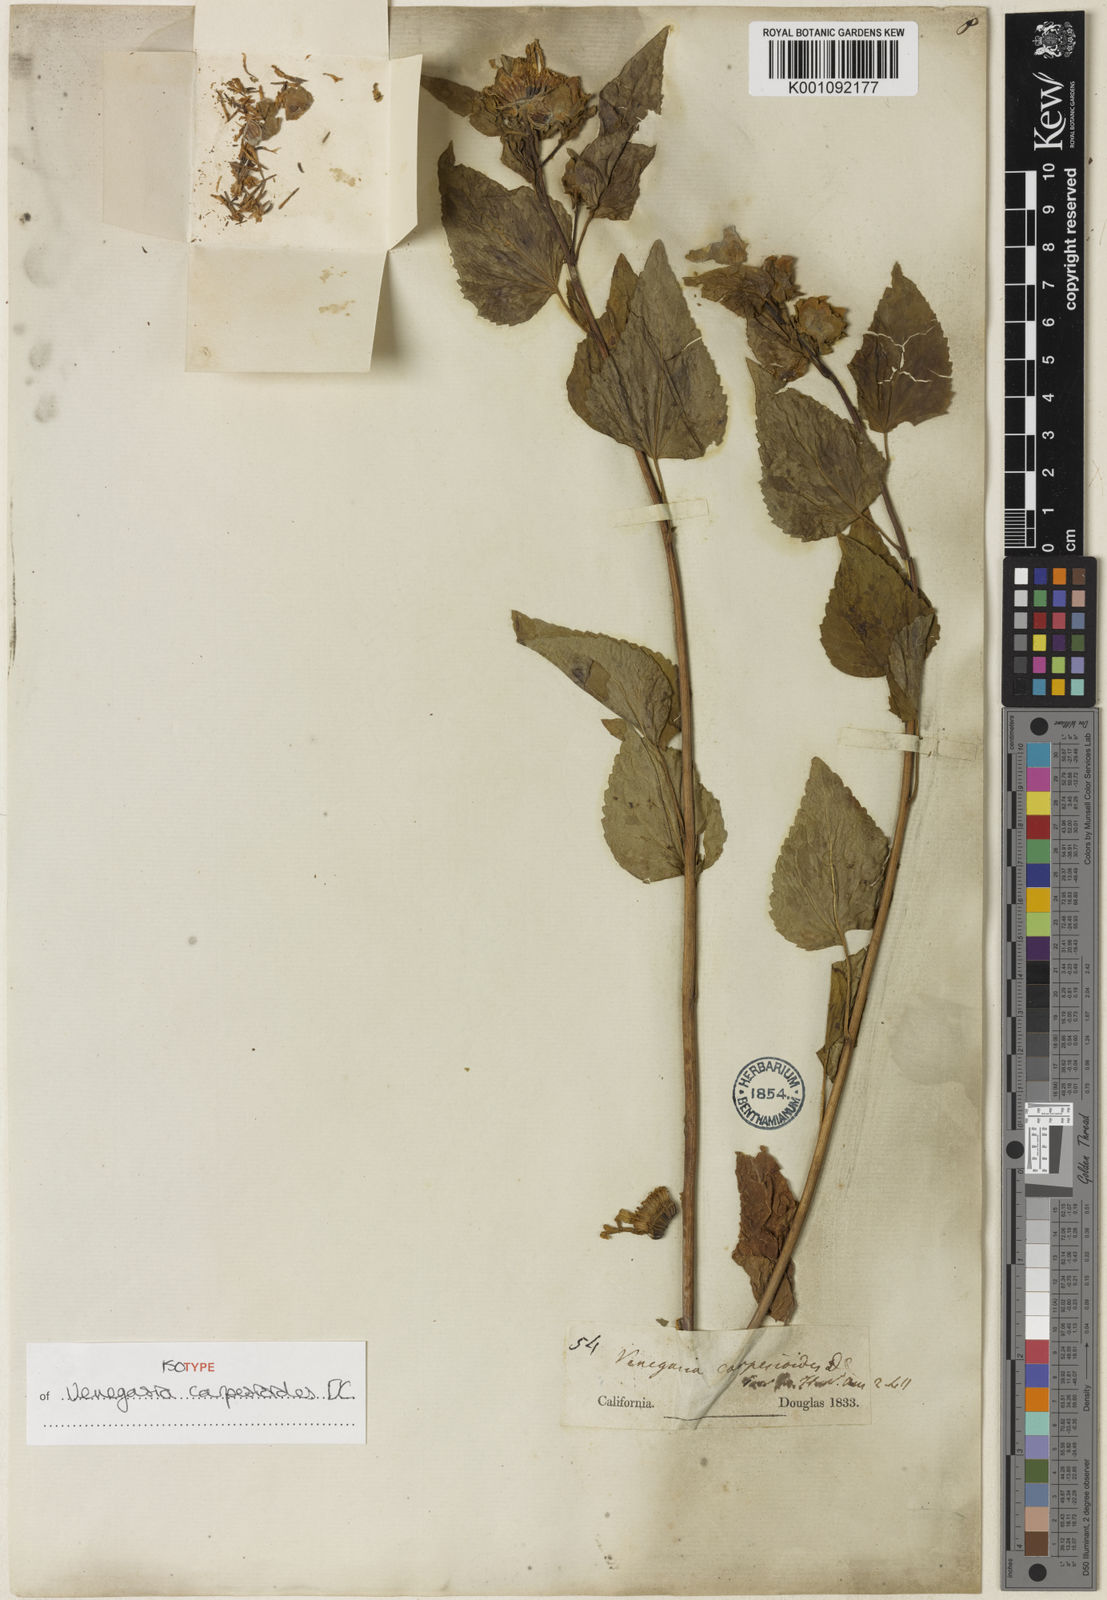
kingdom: Plantae
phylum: Tracheophyta
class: Magnoliopsida
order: Asterales
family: Asteraceae
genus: Venegasia
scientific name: Venegasia carpesioides
